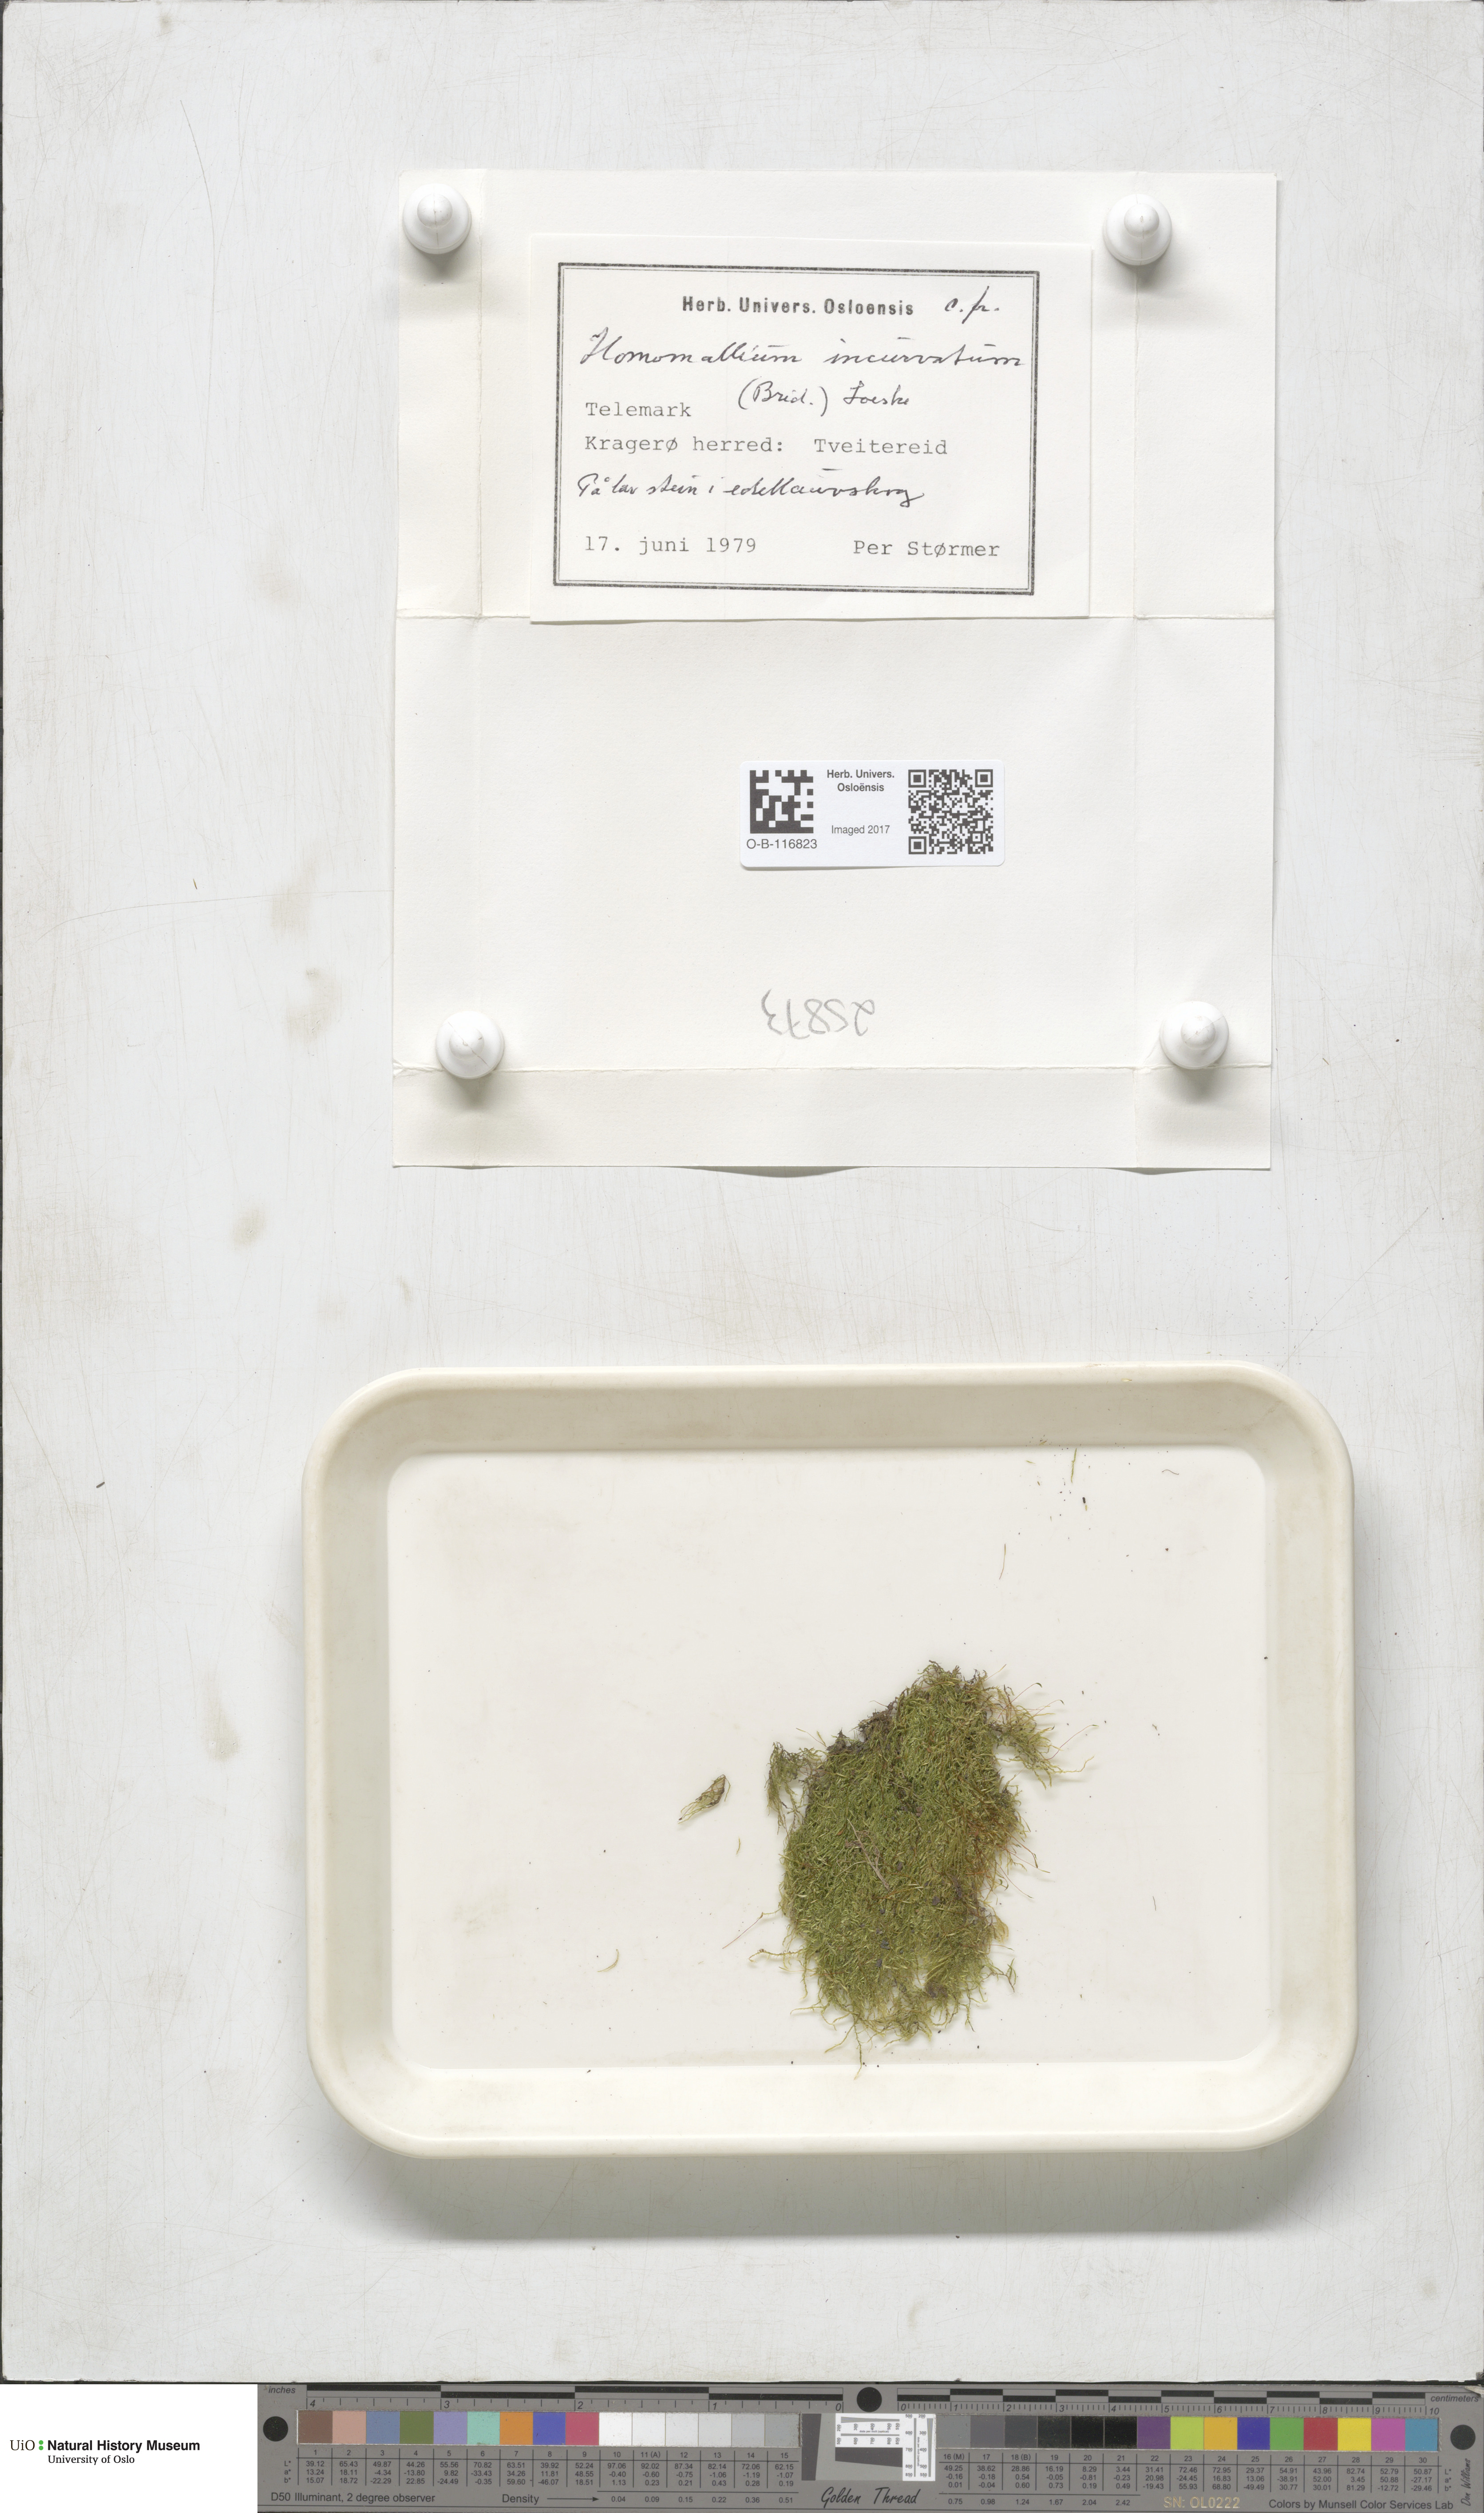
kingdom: Plantae
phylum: Bryophyta
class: Bryopsida
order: Hypnales
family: Pylaisiaceae
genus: Homomallium
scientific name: Homomallium incurvatum
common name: Incurved feather-moss
